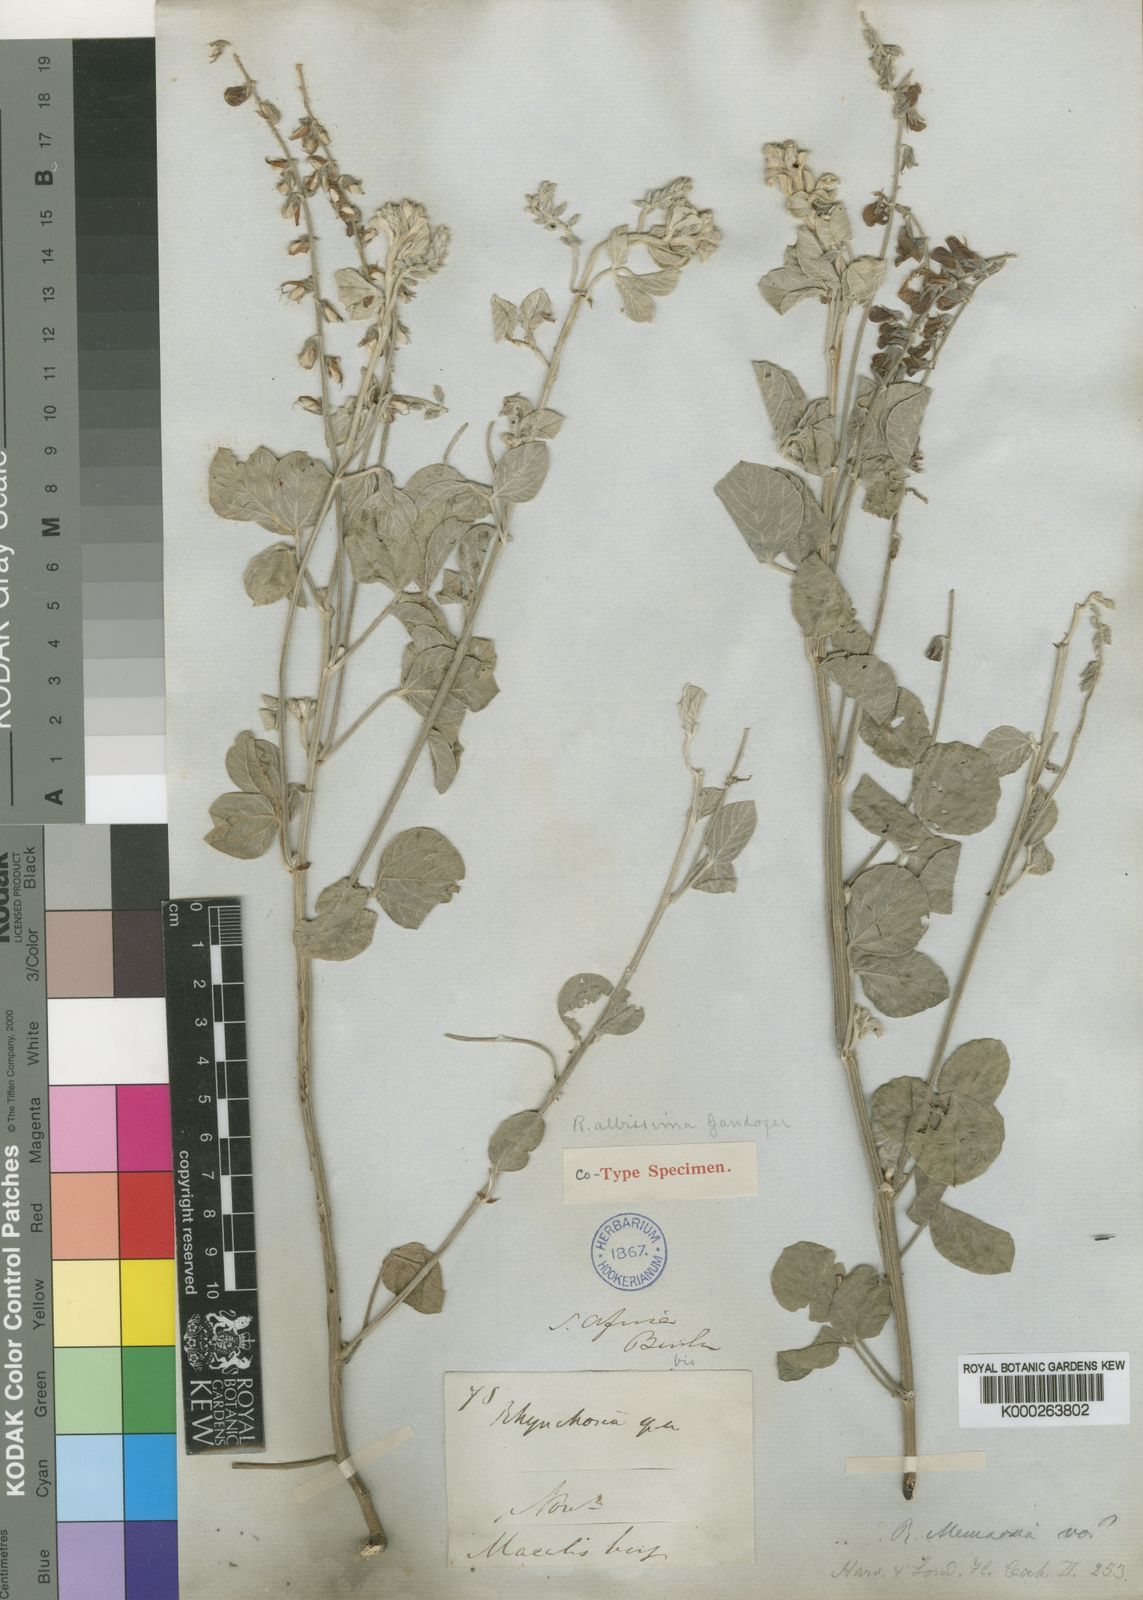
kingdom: Plantae
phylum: Tracheophyta
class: Magnoliopsida
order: Fabales
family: Fabaceae
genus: Rhynchosia
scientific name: Rhynchosia albissima
